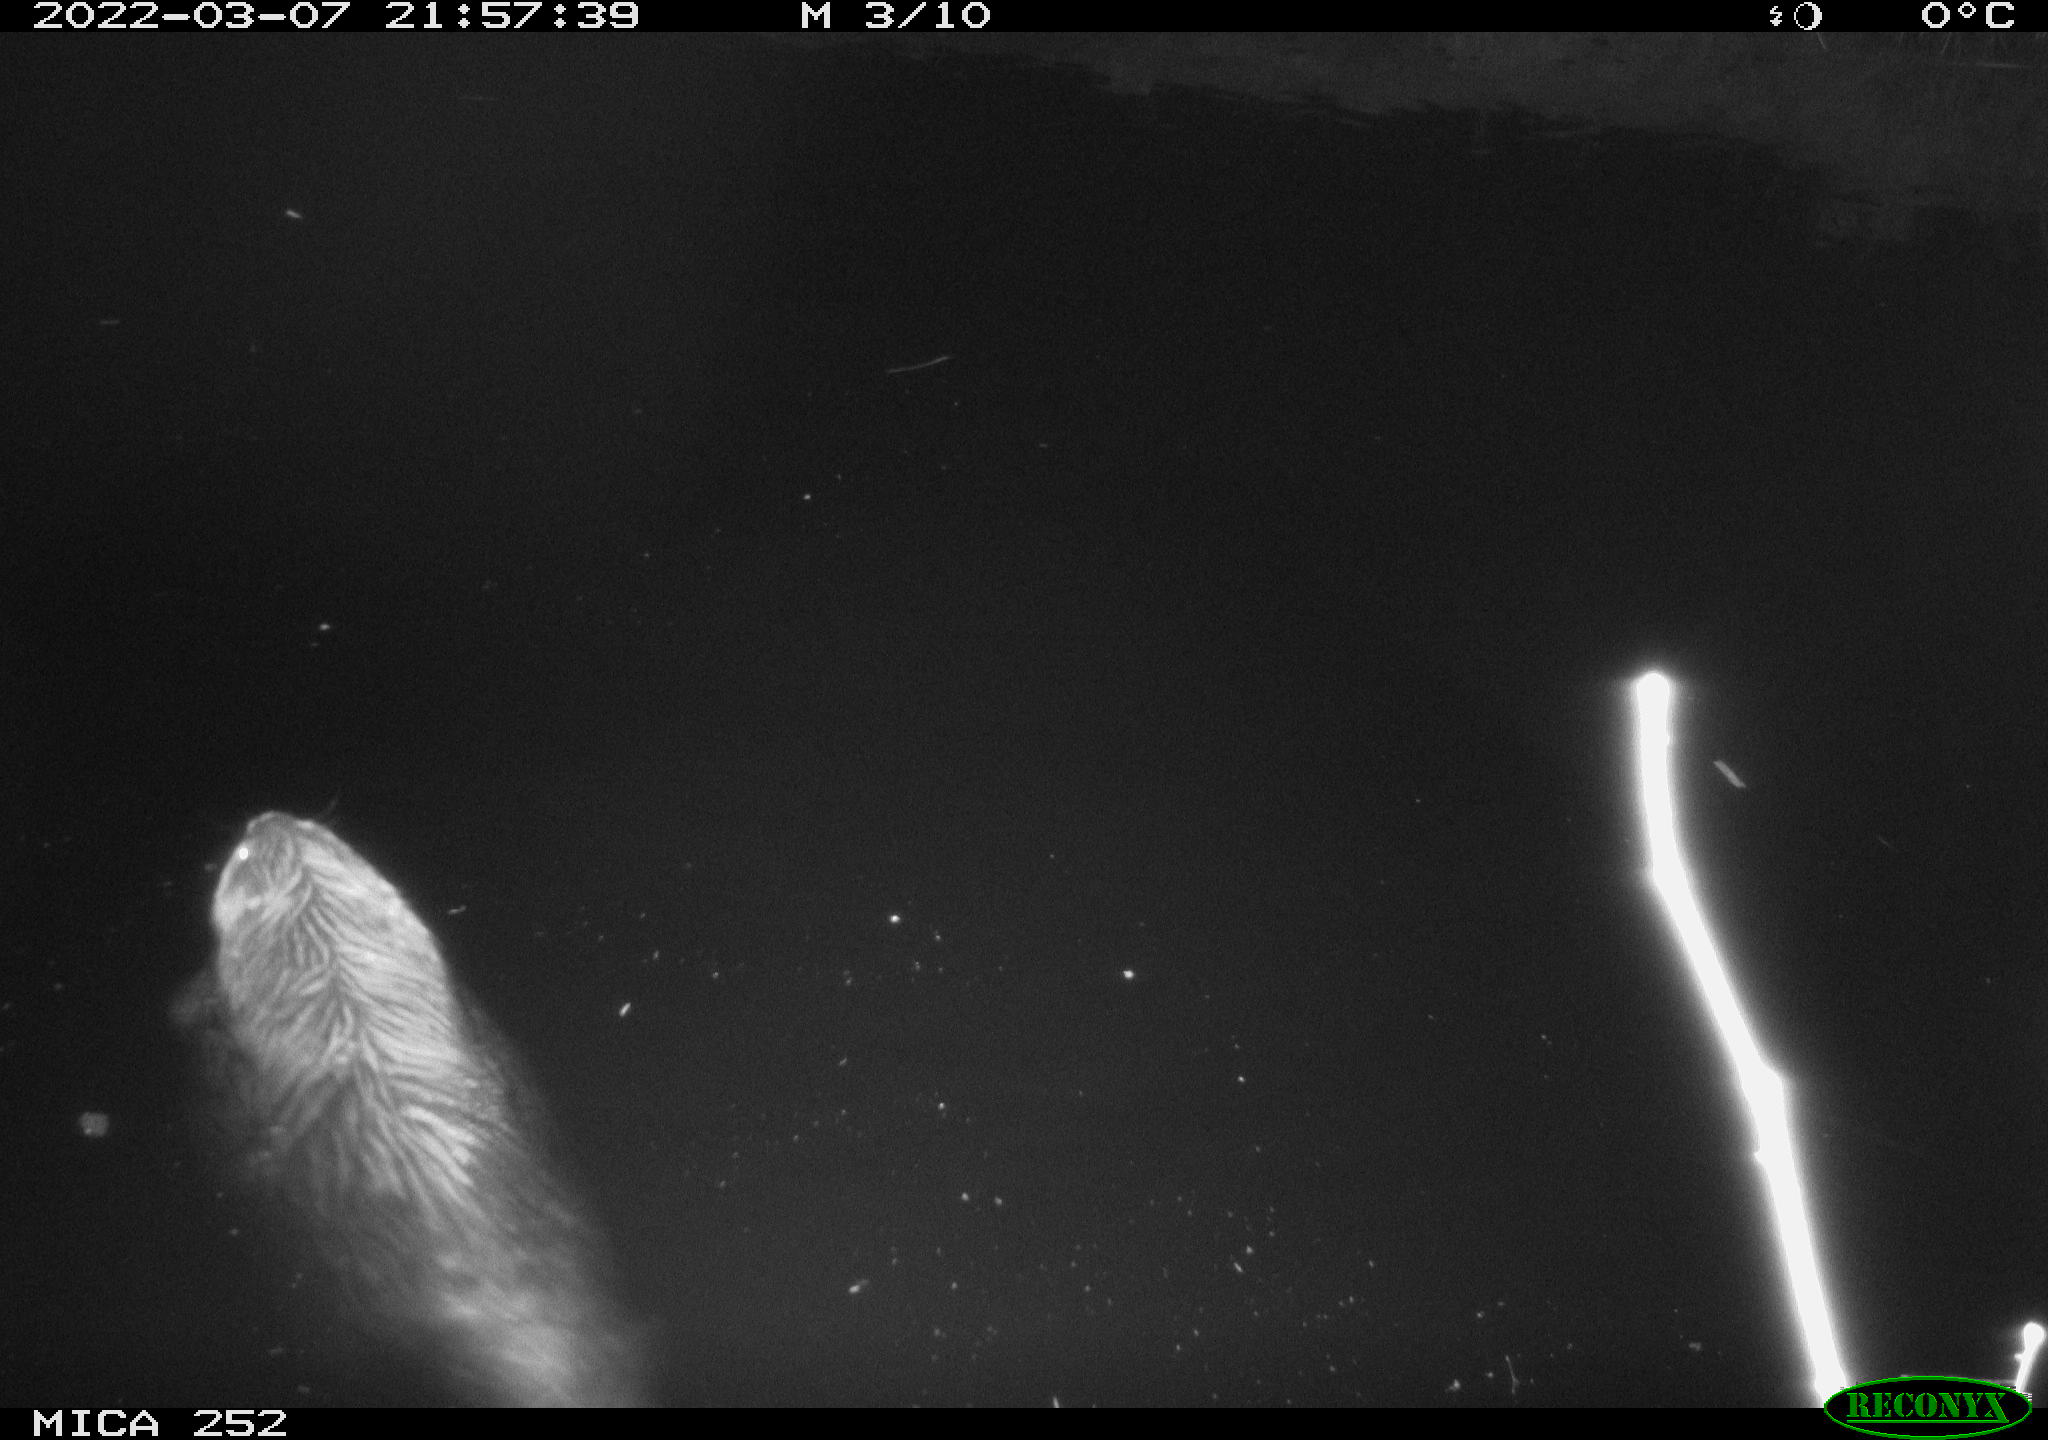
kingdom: Animalia
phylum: Chordata
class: Mammalia
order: Rodentia
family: Castoridae
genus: Castor
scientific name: Castor fiber
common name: Eurasian beaver
